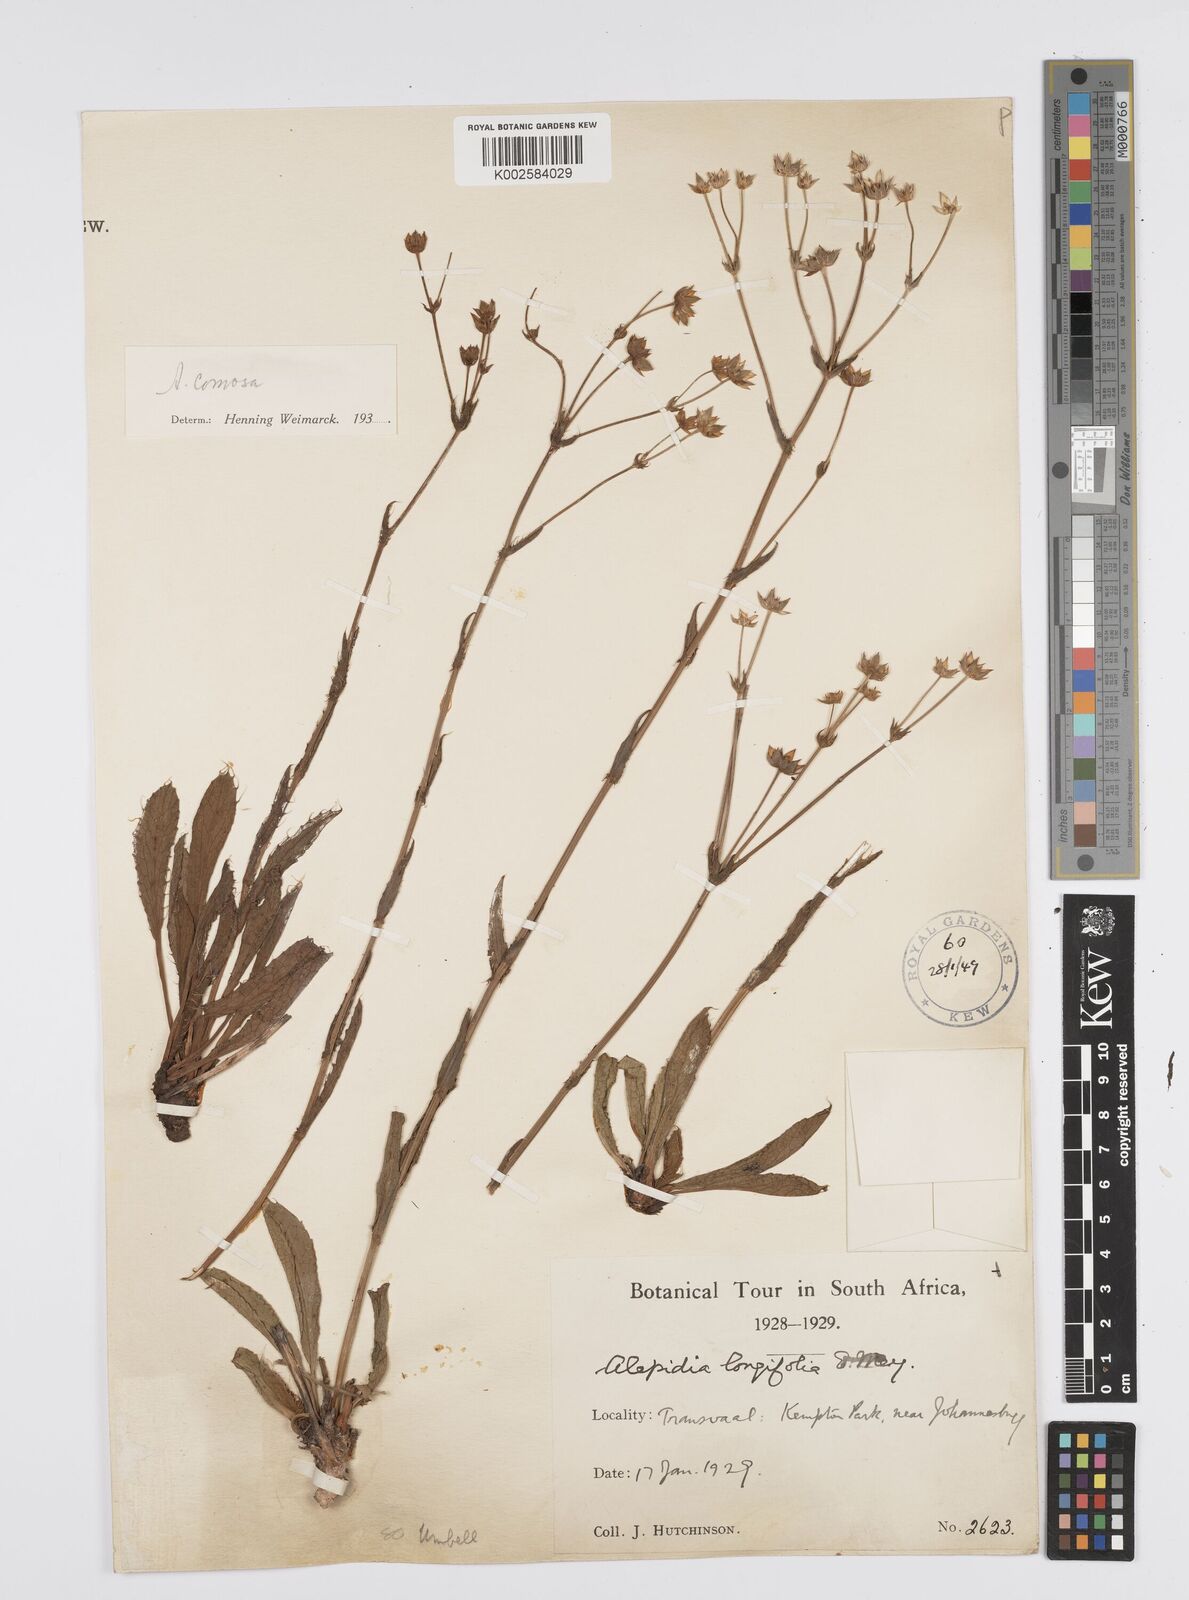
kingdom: Plantae
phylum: Tracheophyta
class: Magnoliopsida
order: Apiales
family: Apiaceae
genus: Alepidea
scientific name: Alepidea
